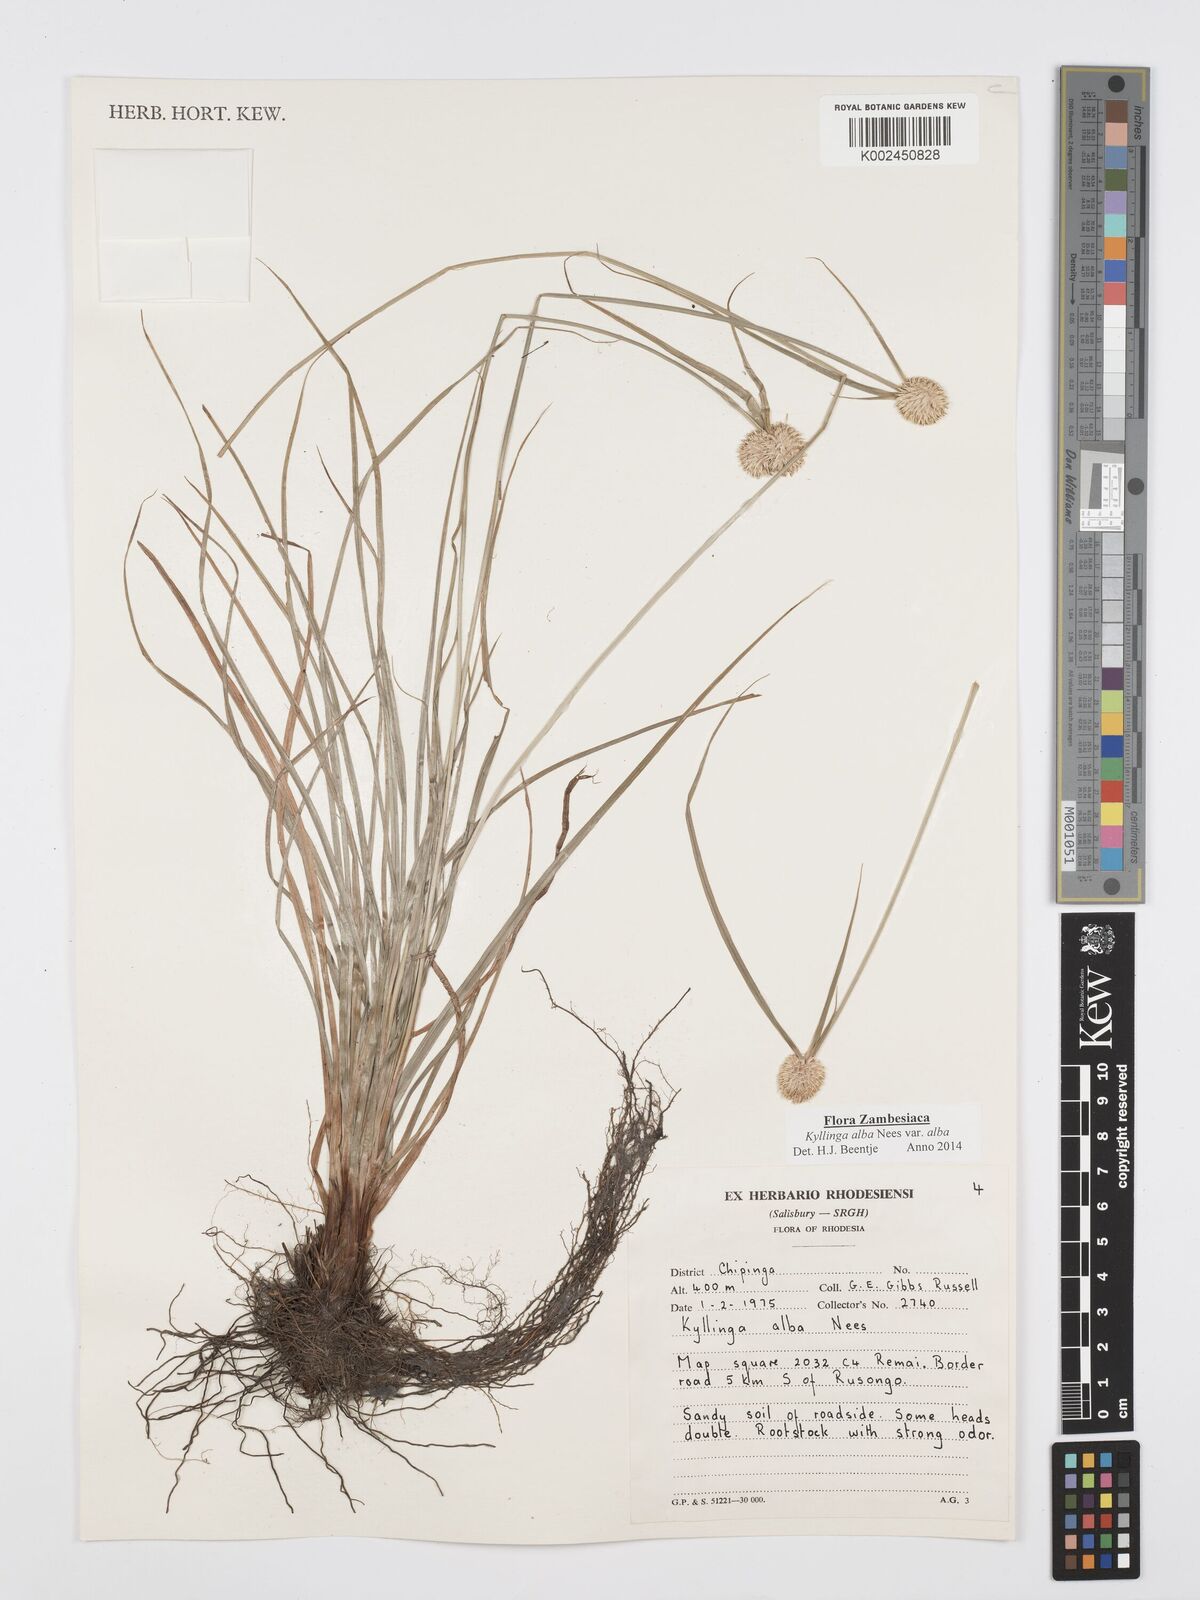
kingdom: Plantae
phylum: Tracheophyta
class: Liliopsida
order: Poales
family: Cyperaceae
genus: Cyperus
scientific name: Cyperus
